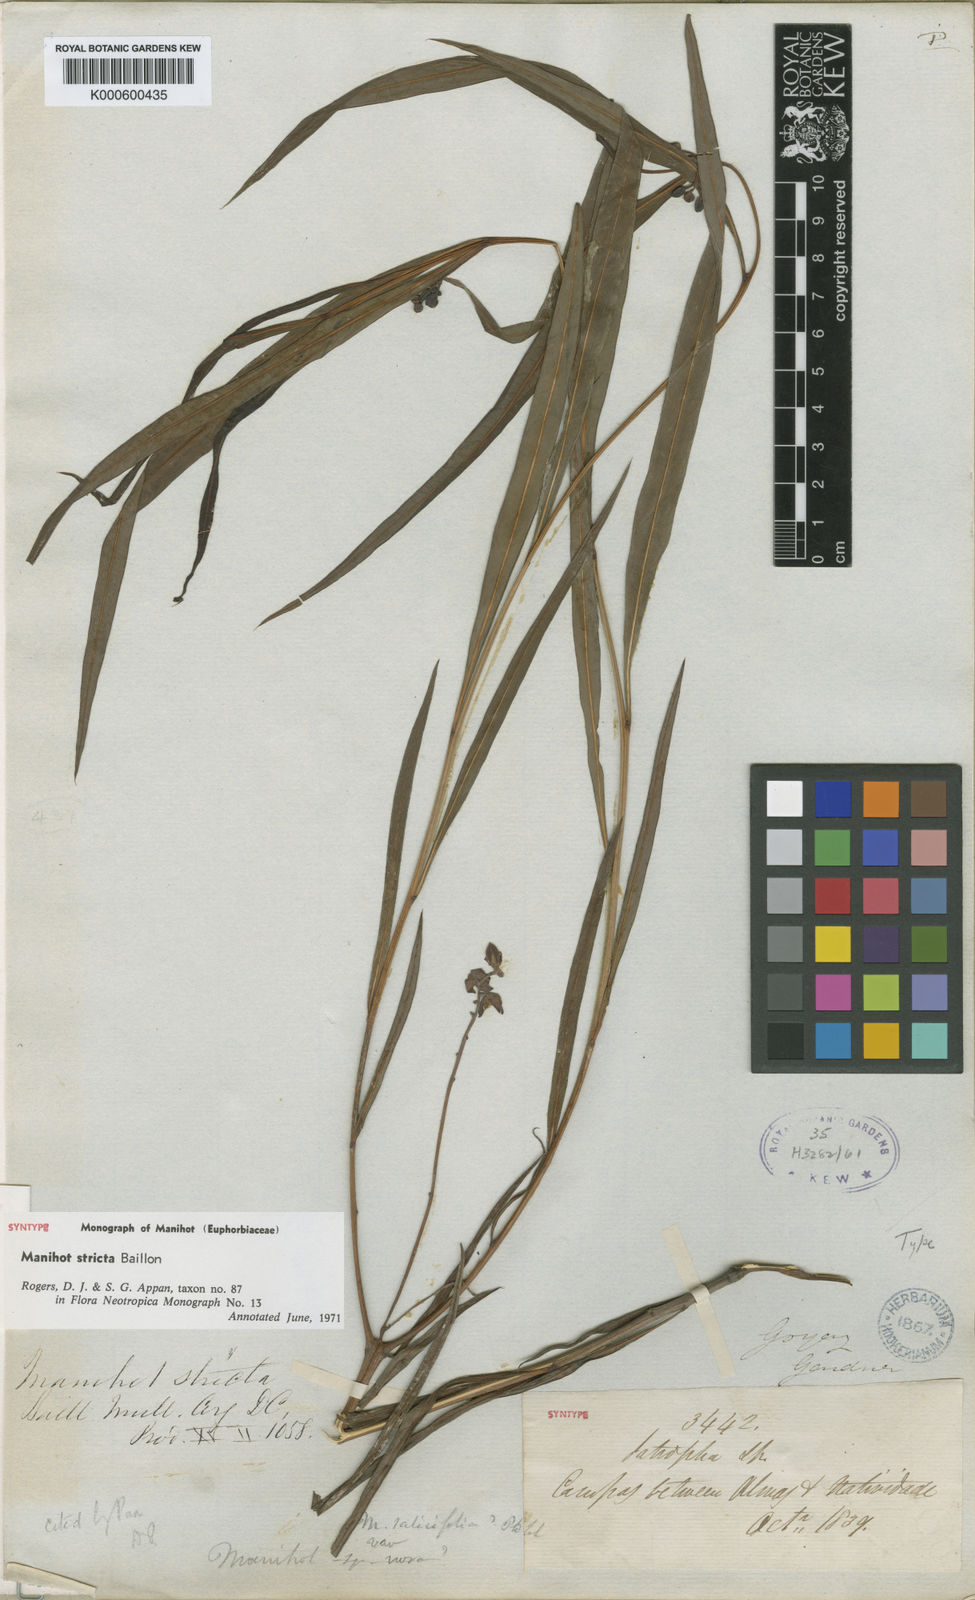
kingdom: Plantae
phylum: Tracheophyta
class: Magnoliopsida
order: Malpighiales
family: Euphorbiaceae
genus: Manihot
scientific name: Manihot stricta
